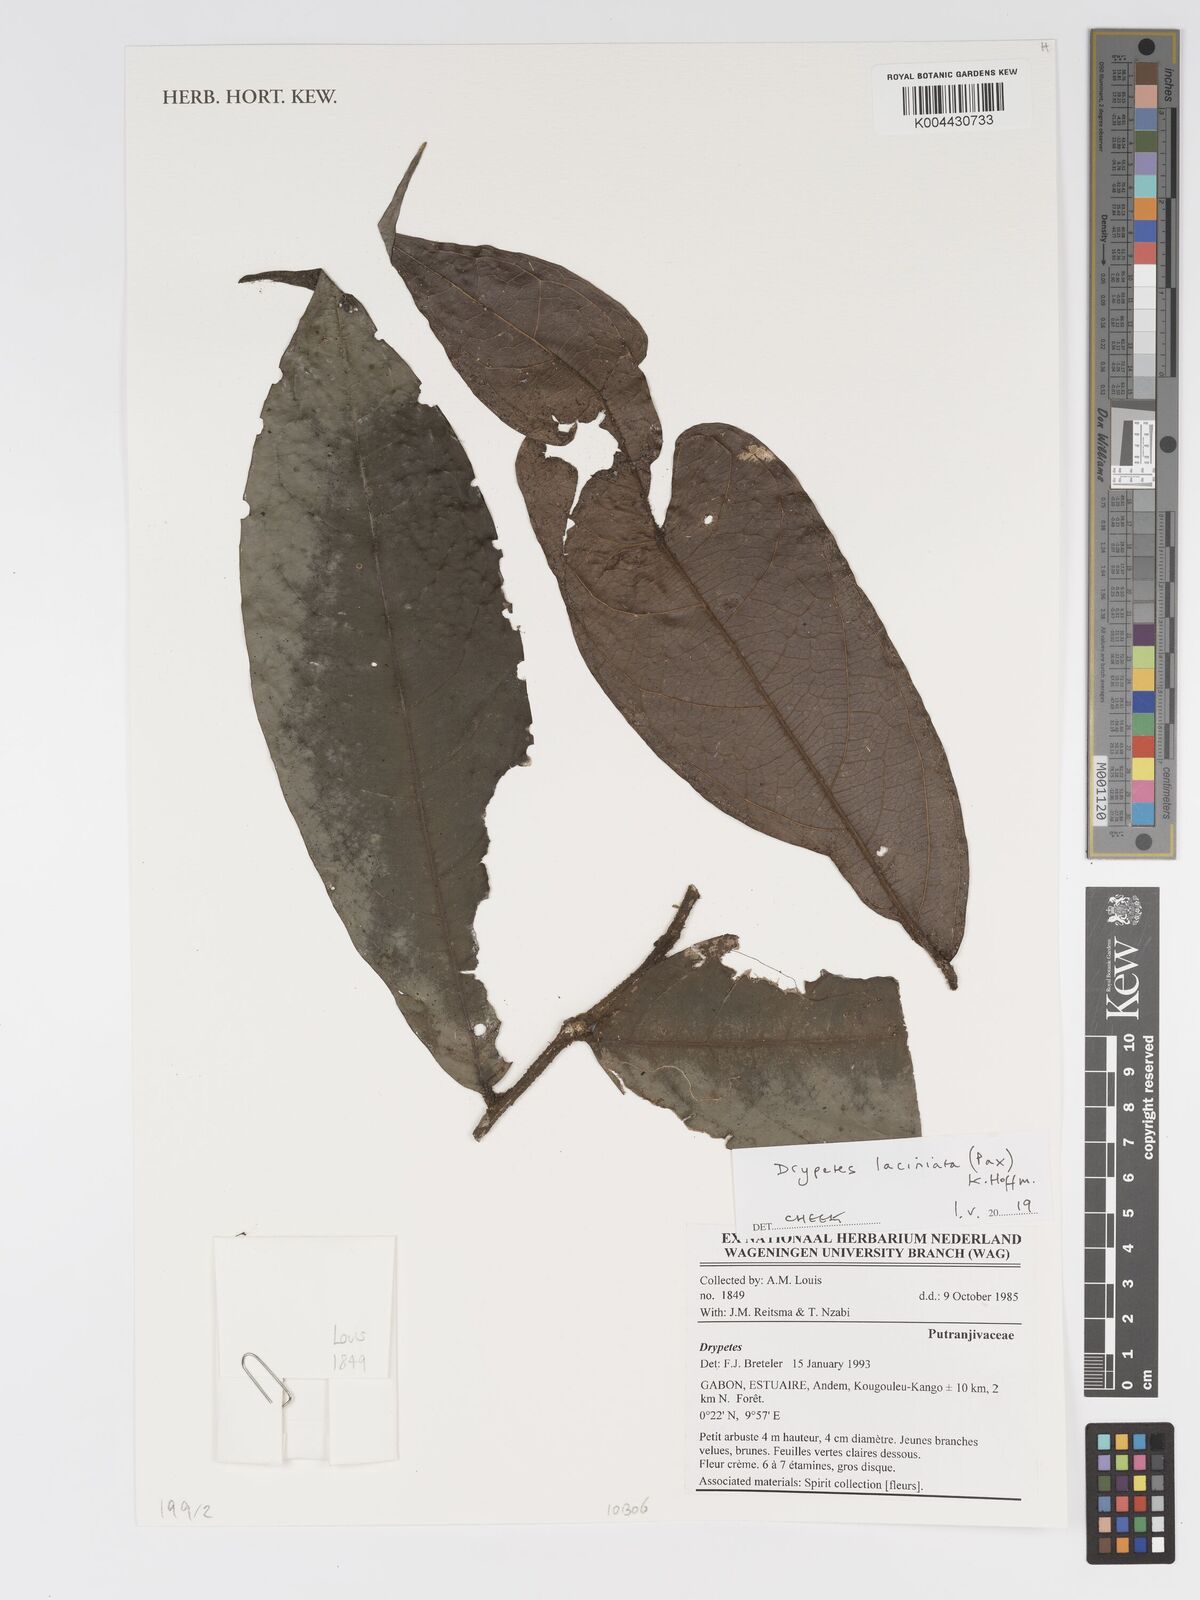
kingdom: Plantae
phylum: Tracheophyta
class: Magnoliopsida
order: Malpighiales
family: Putranjivaceae
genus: Drypetes
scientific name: Drypetes laciniata
